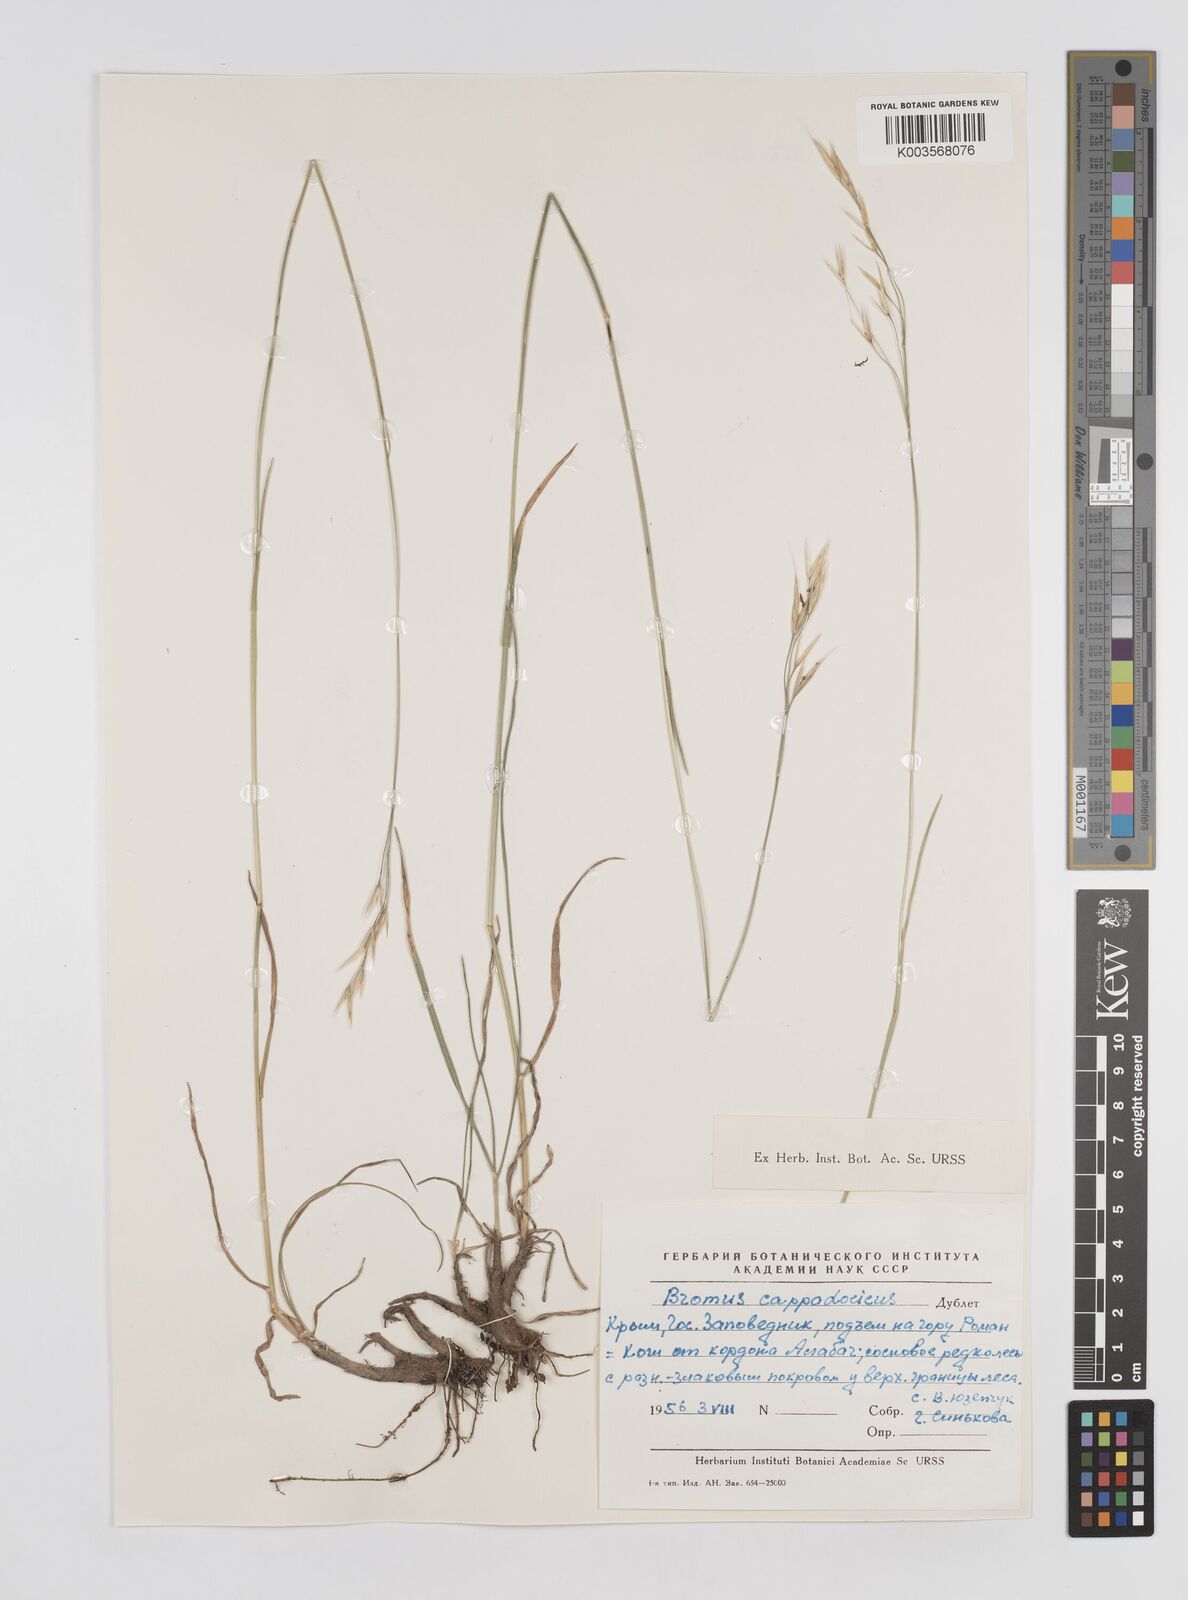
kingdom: Plantae
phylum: Tracheophyta
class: Liliopsida
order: Poales
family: Poaceae
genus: Bromus
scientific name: Bromus riparius
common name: Meadow brome
